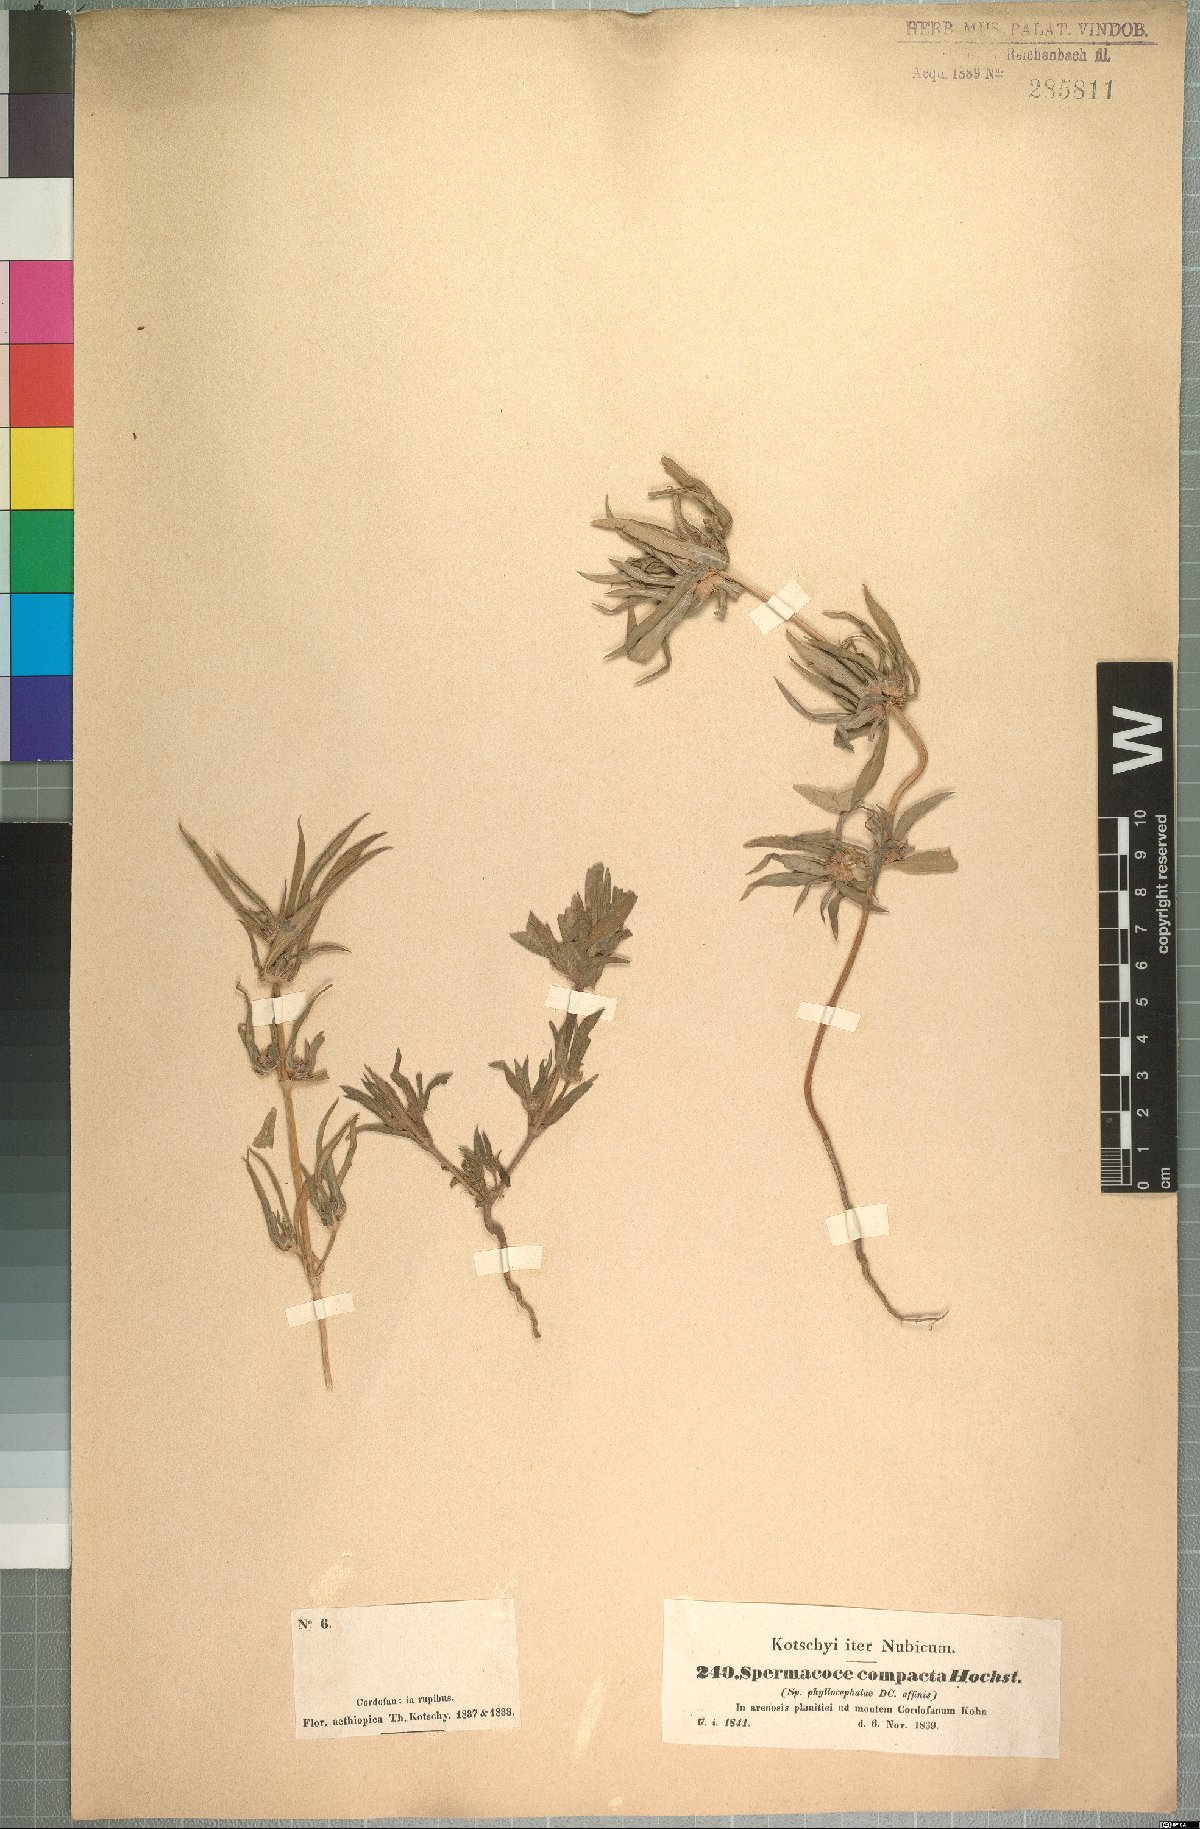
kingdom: Plantae
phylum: Tracheophyta
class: Magnoliopsida
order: Gentianales
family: Rubiaceae
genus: Spermacoce
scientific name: Spermacoce chaetocephala
